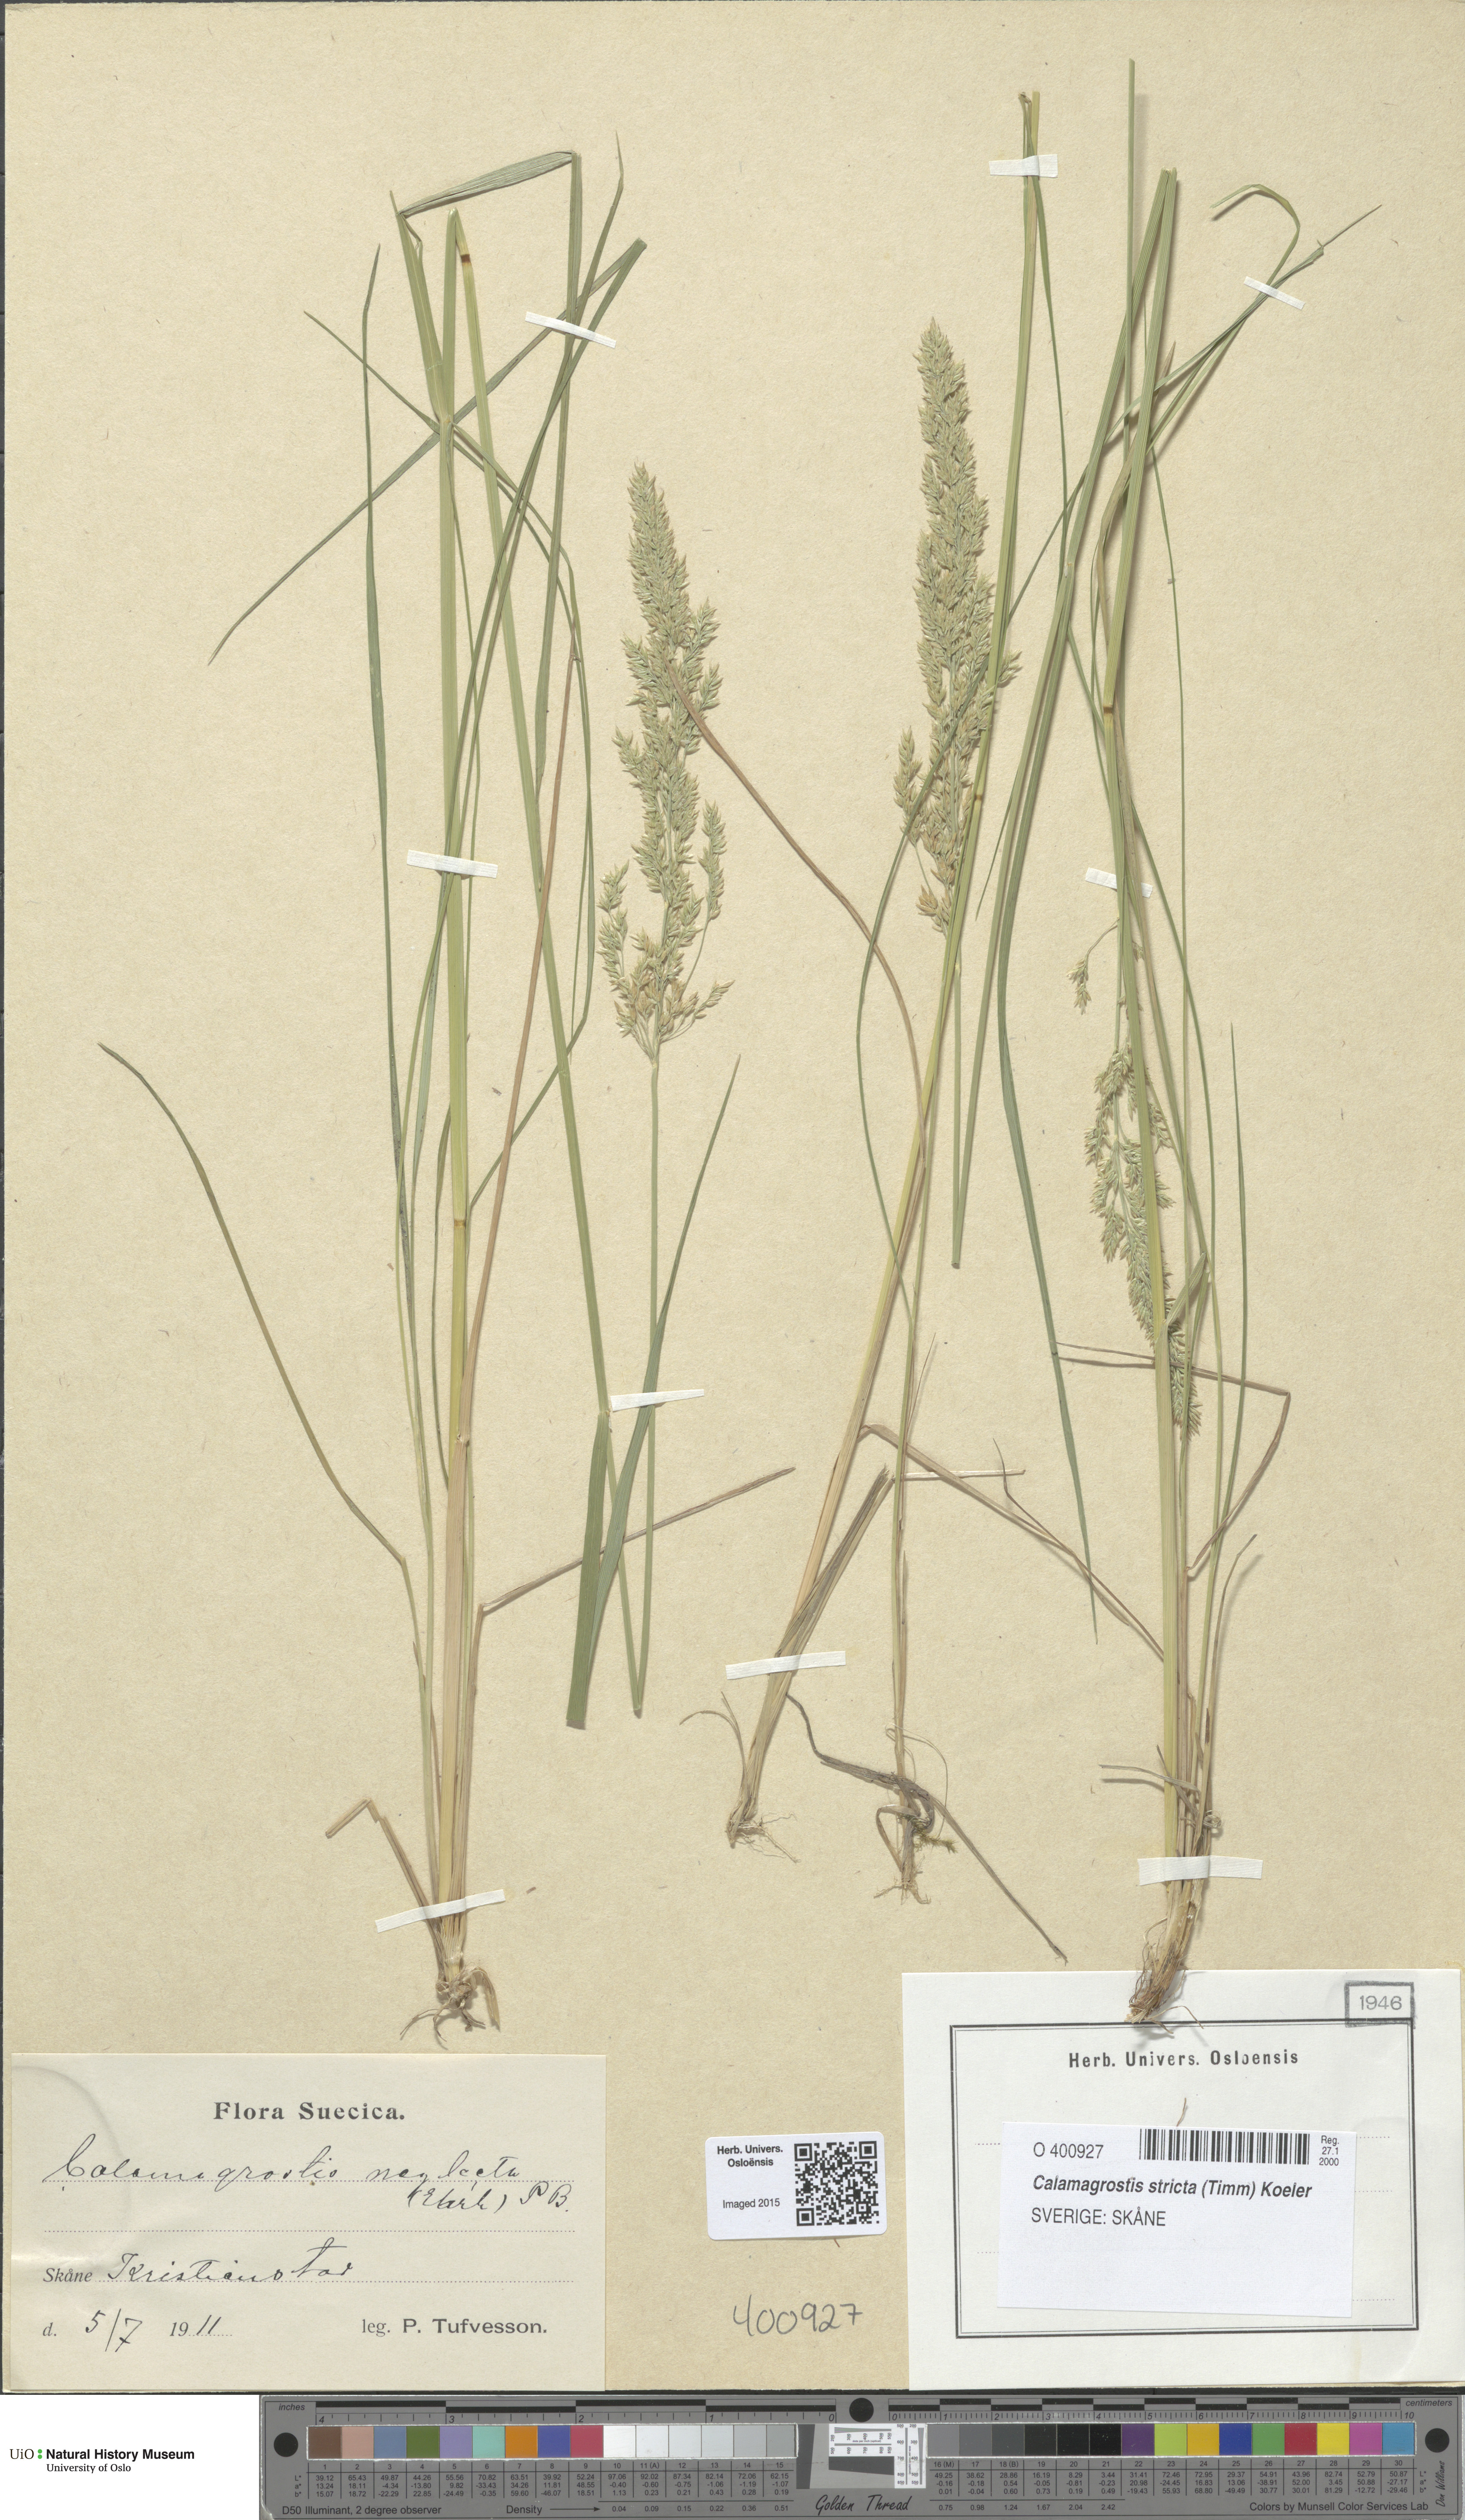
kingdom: Plantae
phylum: Tracheophyta
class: Liliopsida
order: Poales
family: Poaceae
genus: Achnatherum
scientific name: Achnatherum calamagrostis
